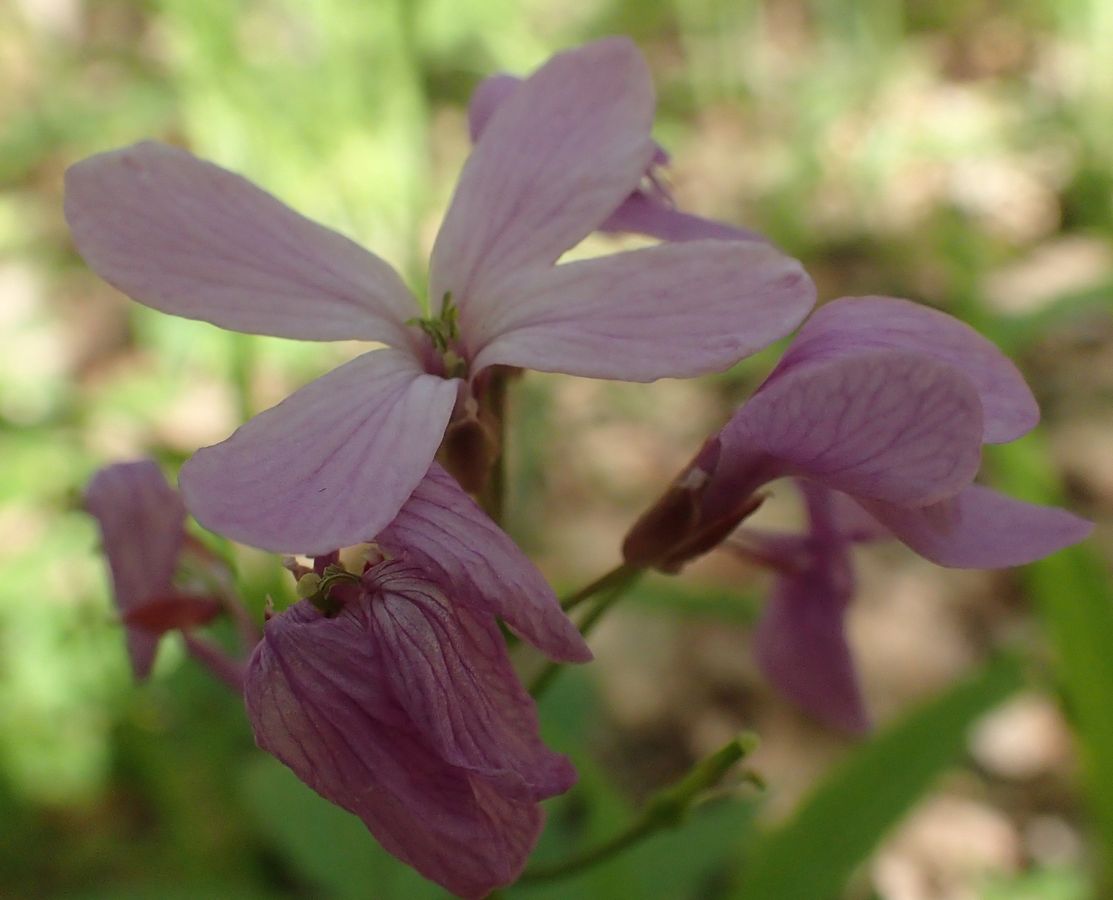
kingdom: Plantae
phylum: Tracheophyta
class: Magnoliopsida
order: Brassicales
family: Brassicaceae
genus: Cardamine
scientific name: Cardamine quinquefolia
